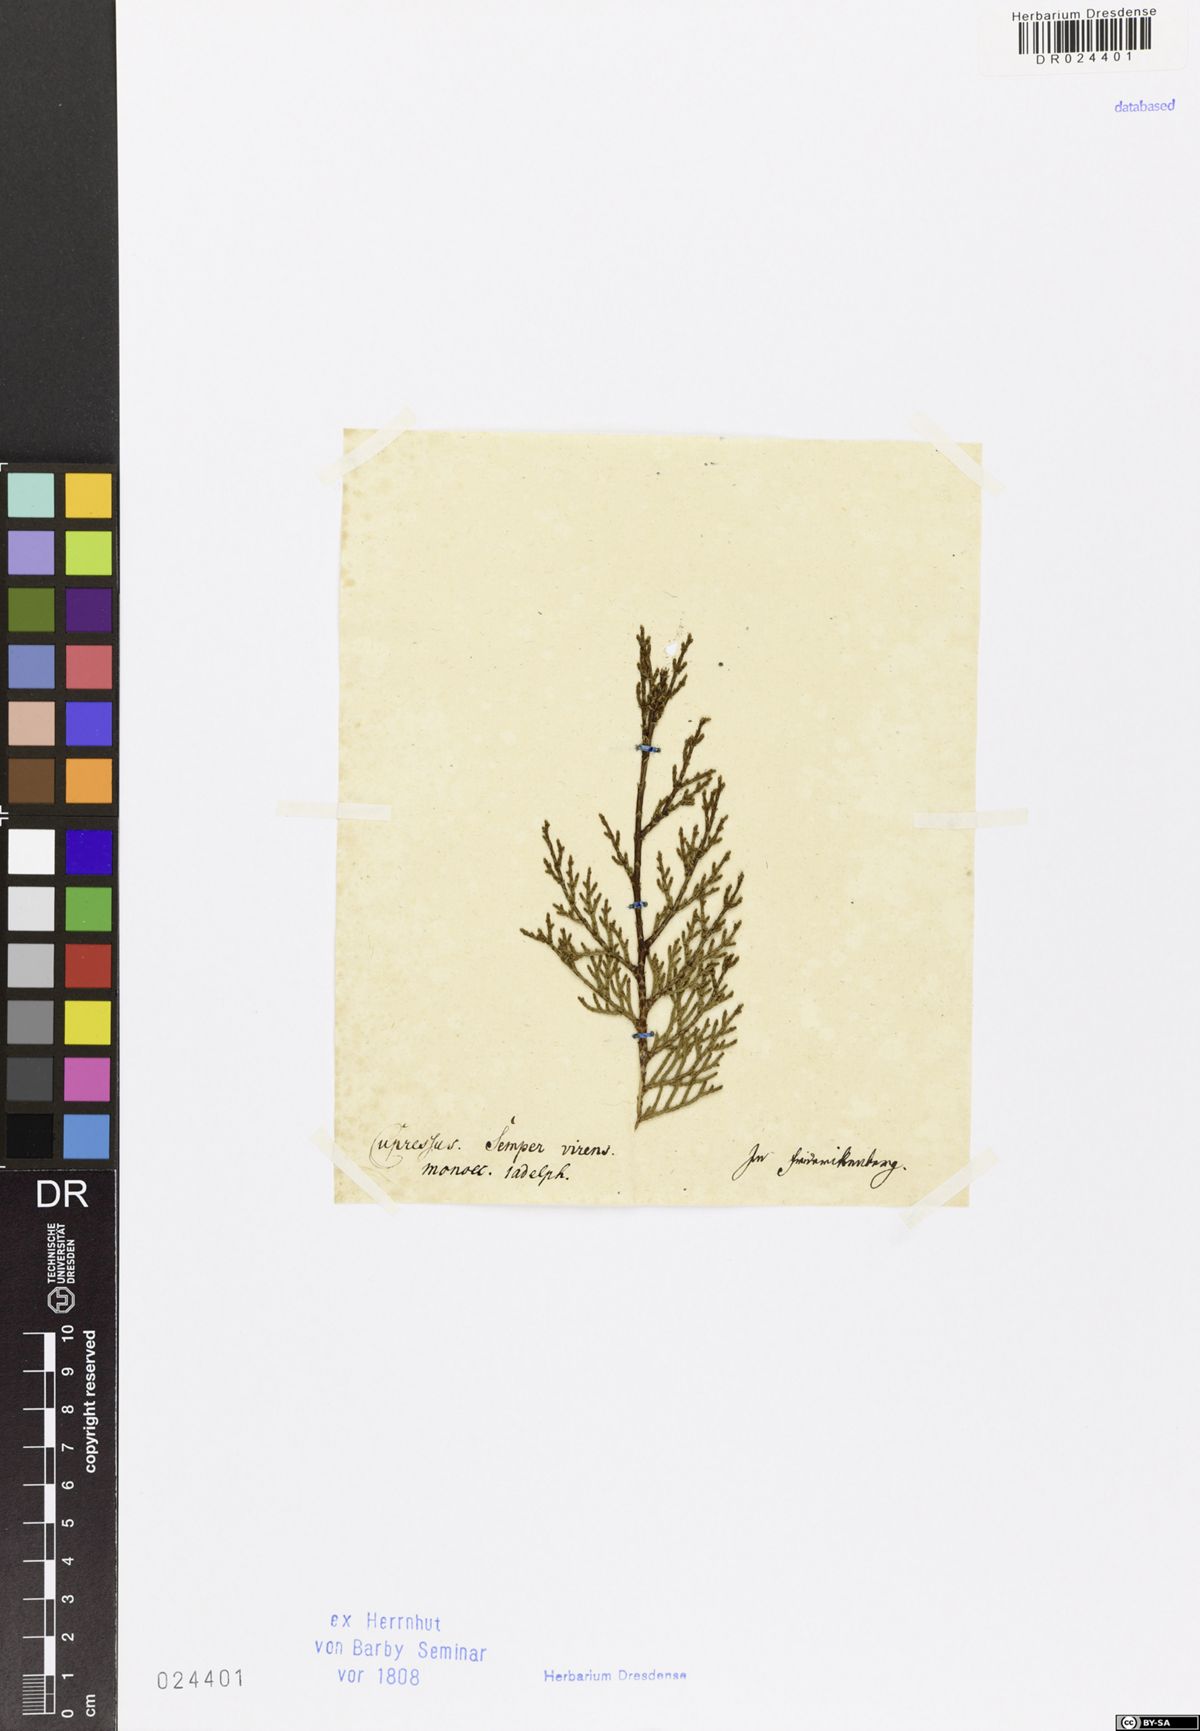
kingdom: Plantae
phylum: Tracheophyta
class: Pinopsida
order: Pinales
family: Cupressaceae
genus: Cupressus
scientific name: Cupressus sempervirens
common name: Italian cypress
